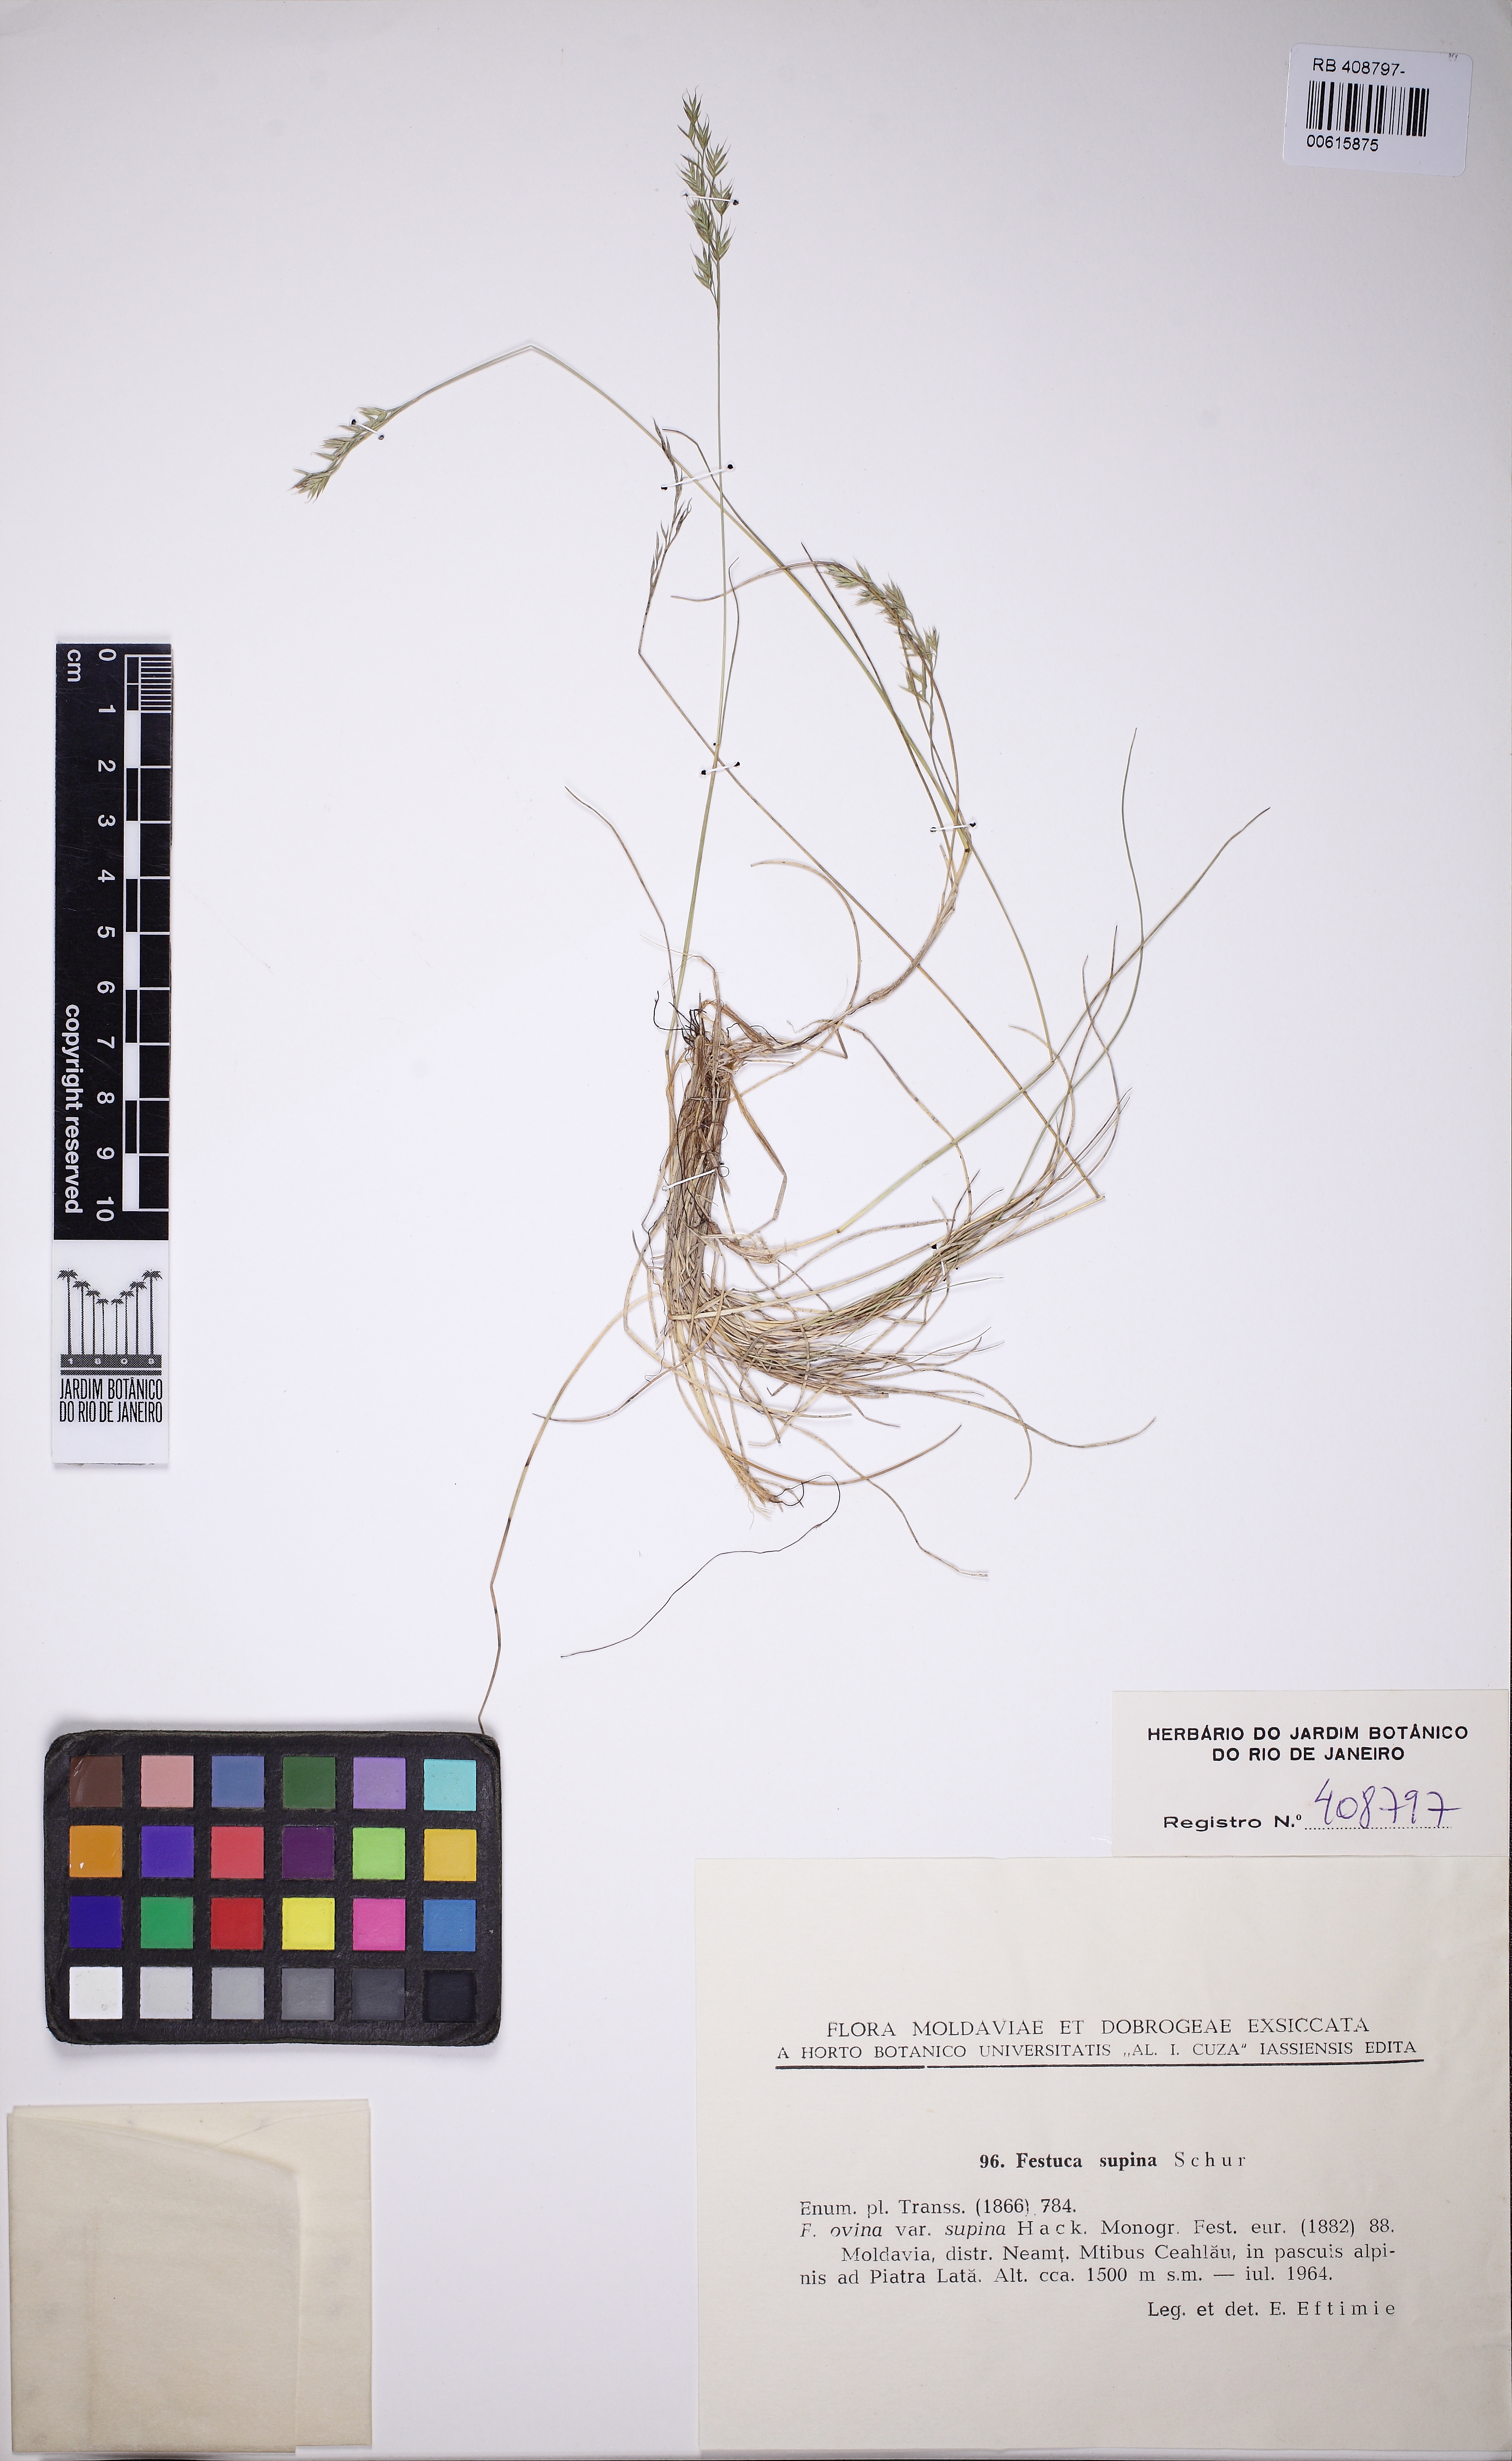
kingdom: Plantae
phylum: Tracheophyta
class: Liliopsida
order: Poales
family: Poaceae
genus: Festuca
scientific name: Festuca airoides
